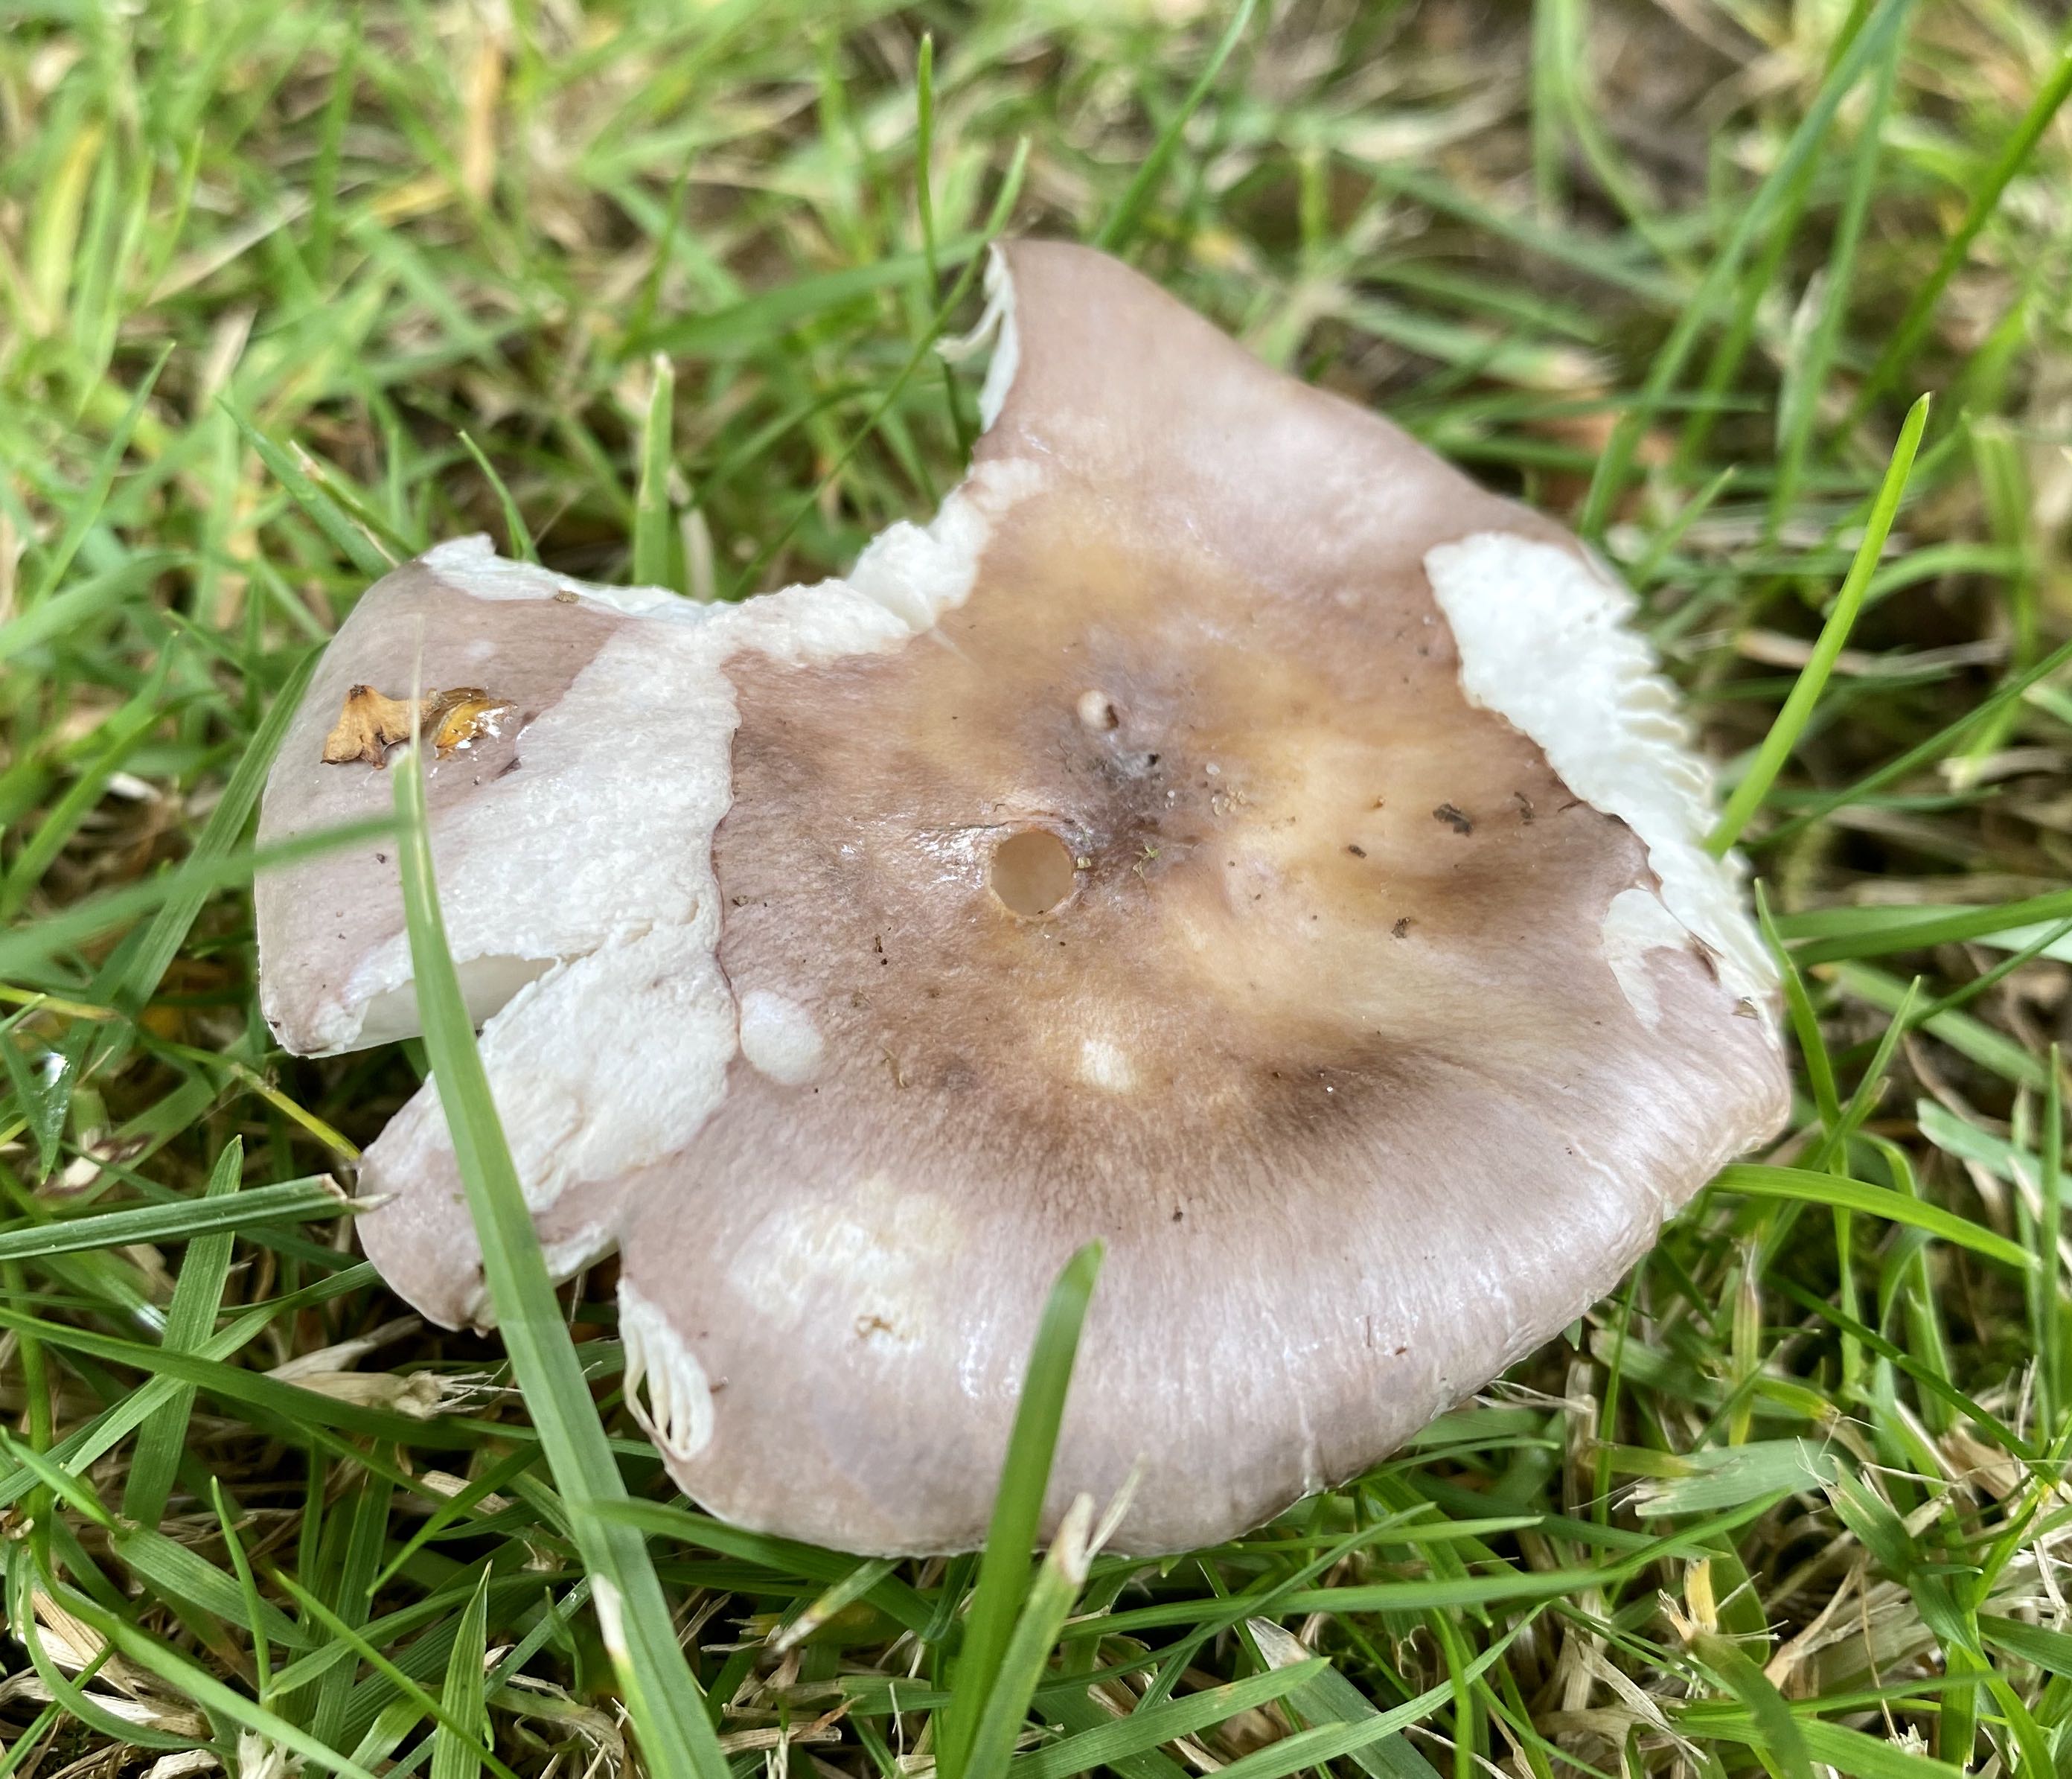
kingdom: Fungi
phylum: Basidiomycota
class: Agaricomycetes
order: Russulales
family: Russulaceae
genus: Russula
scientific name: Russula
